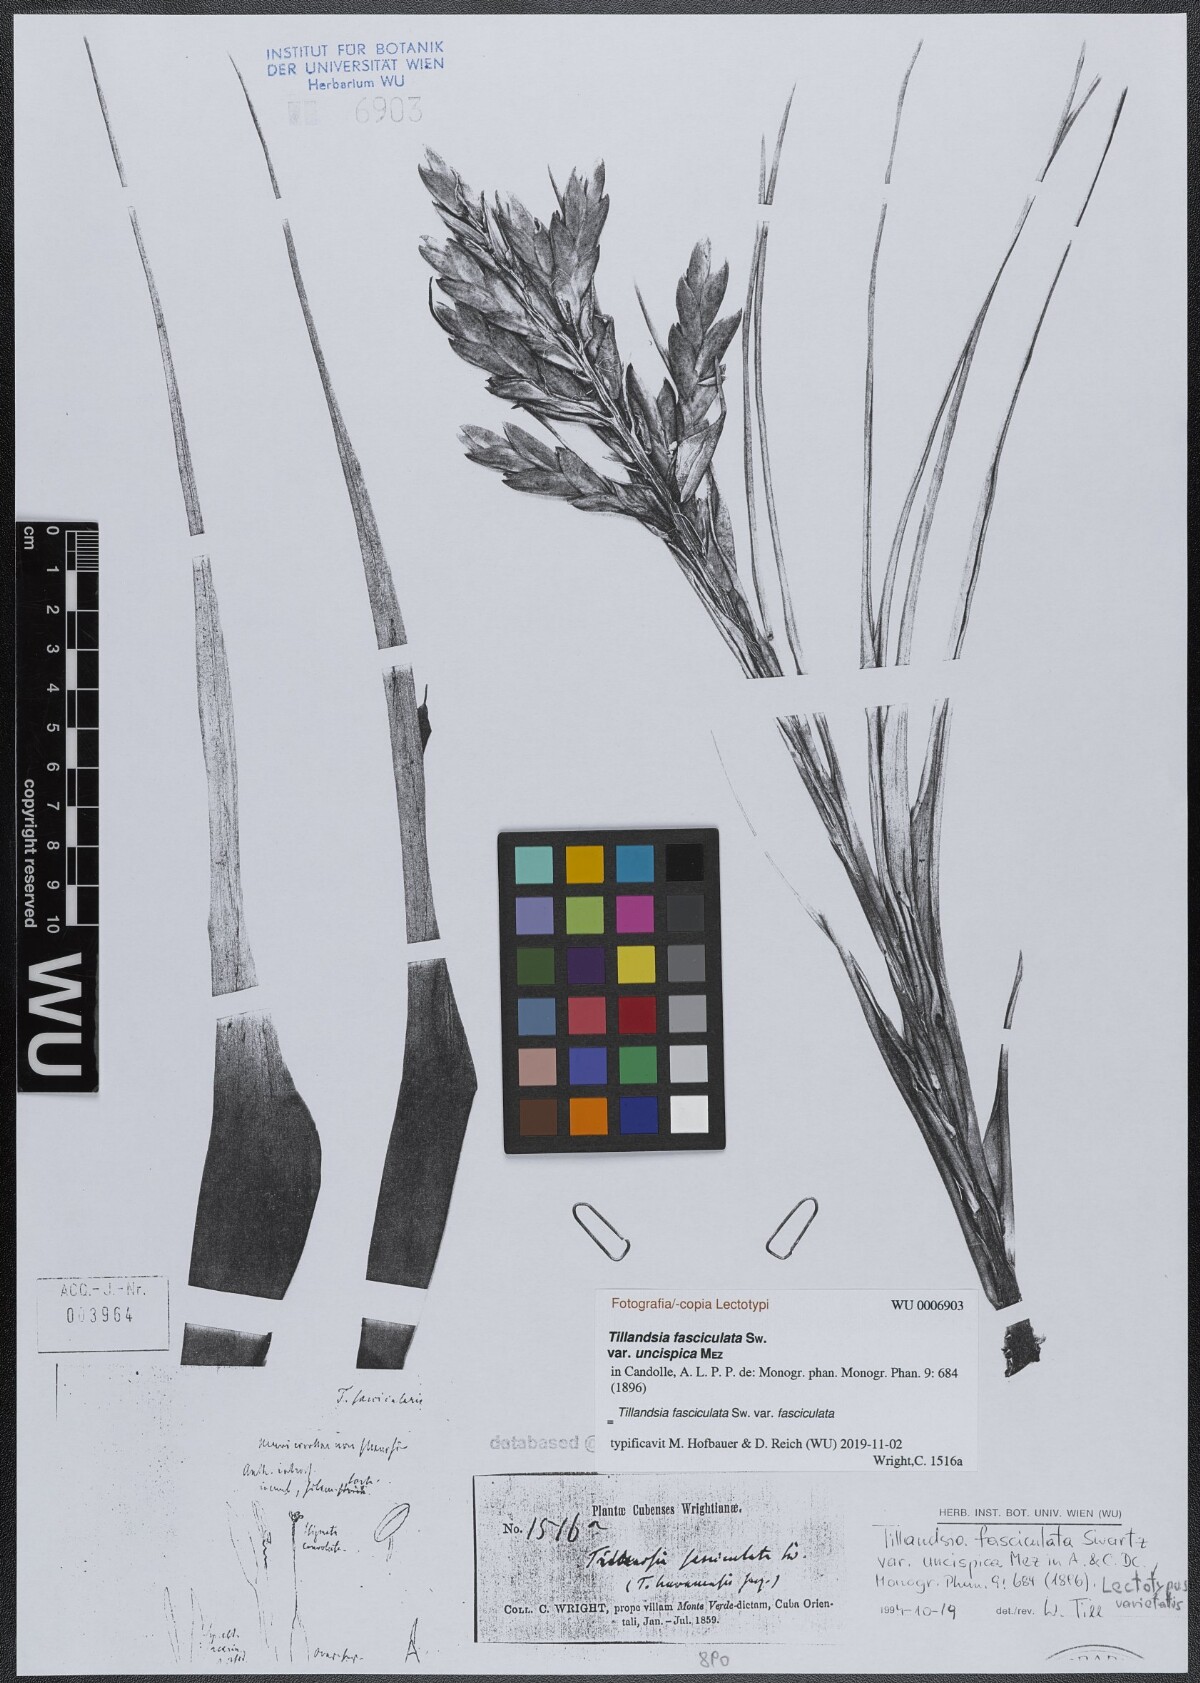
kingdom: Plantae
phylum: Tracheophyta
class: Liliopsida
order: Poales
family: Bromeliaceae
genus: Tillandsia
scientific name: Tillandsia fasciculata
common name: Giant airplant
